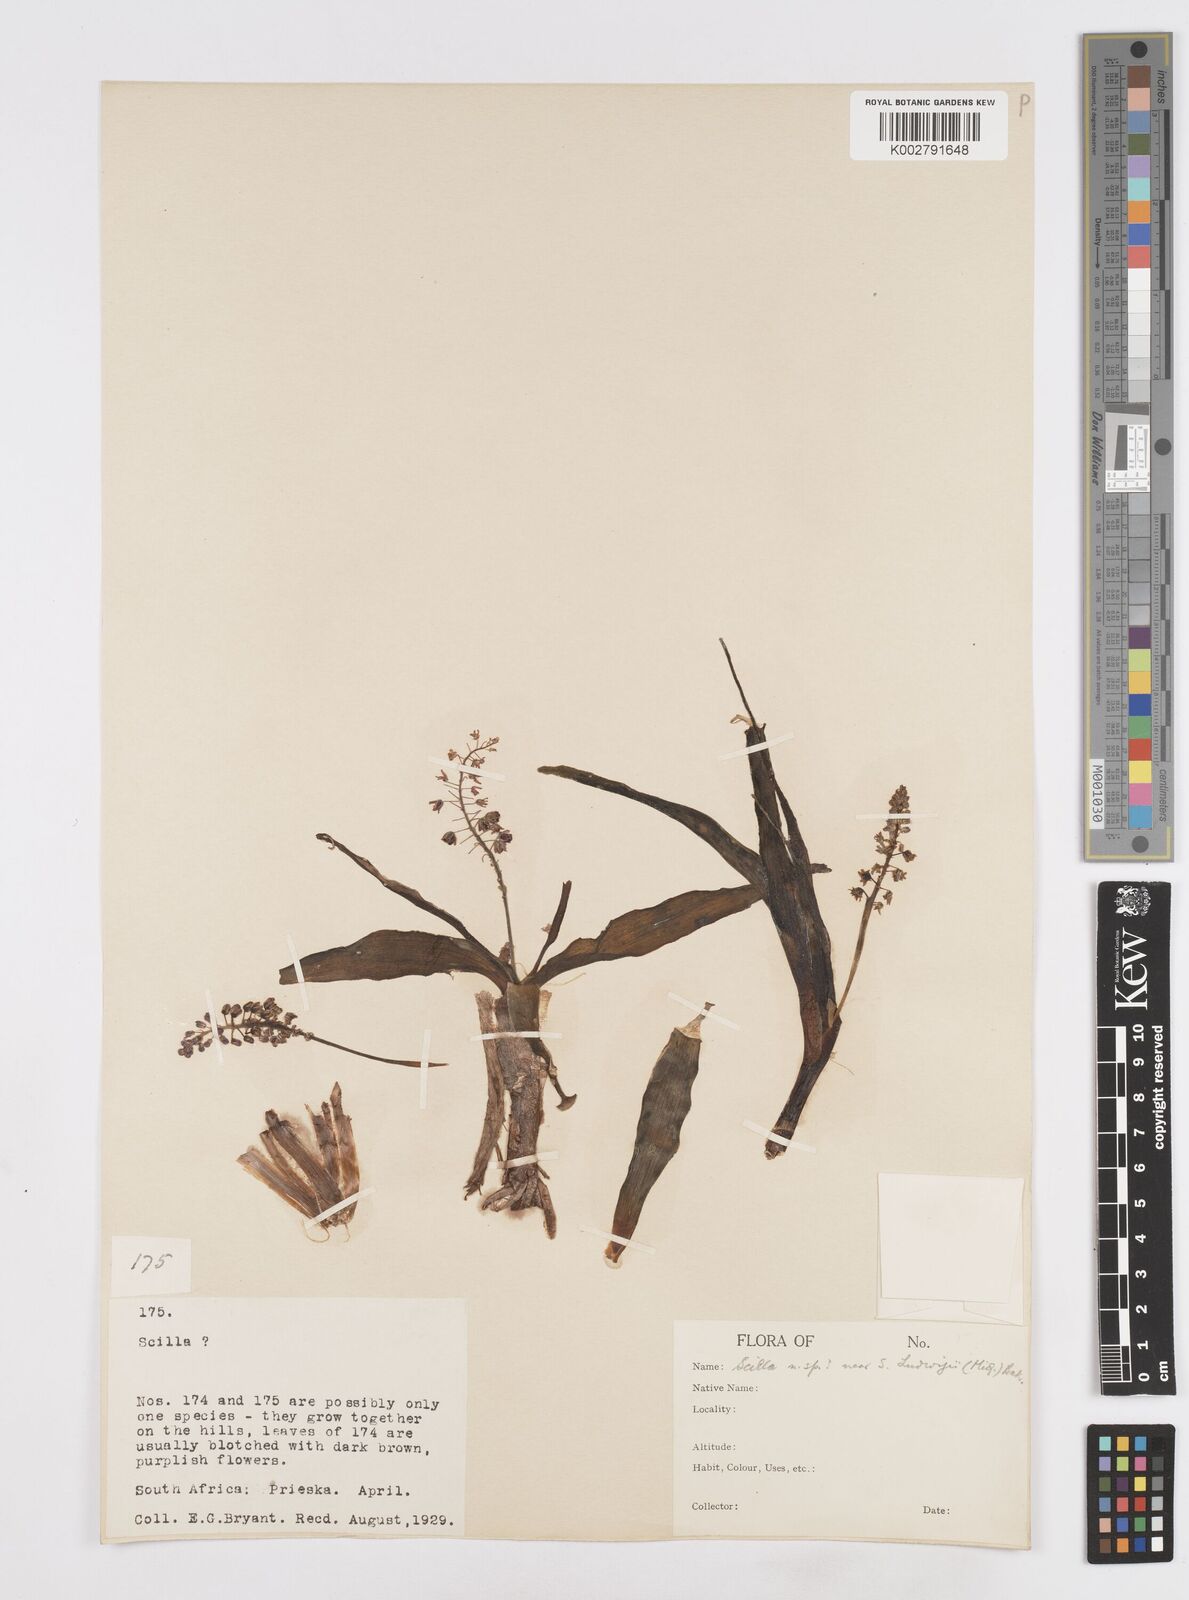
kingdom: Plantae
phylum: Tracheophyta
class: Liliopsida
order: Asparagales
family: Asparagaceae
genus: Scilla
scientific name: Scilla
